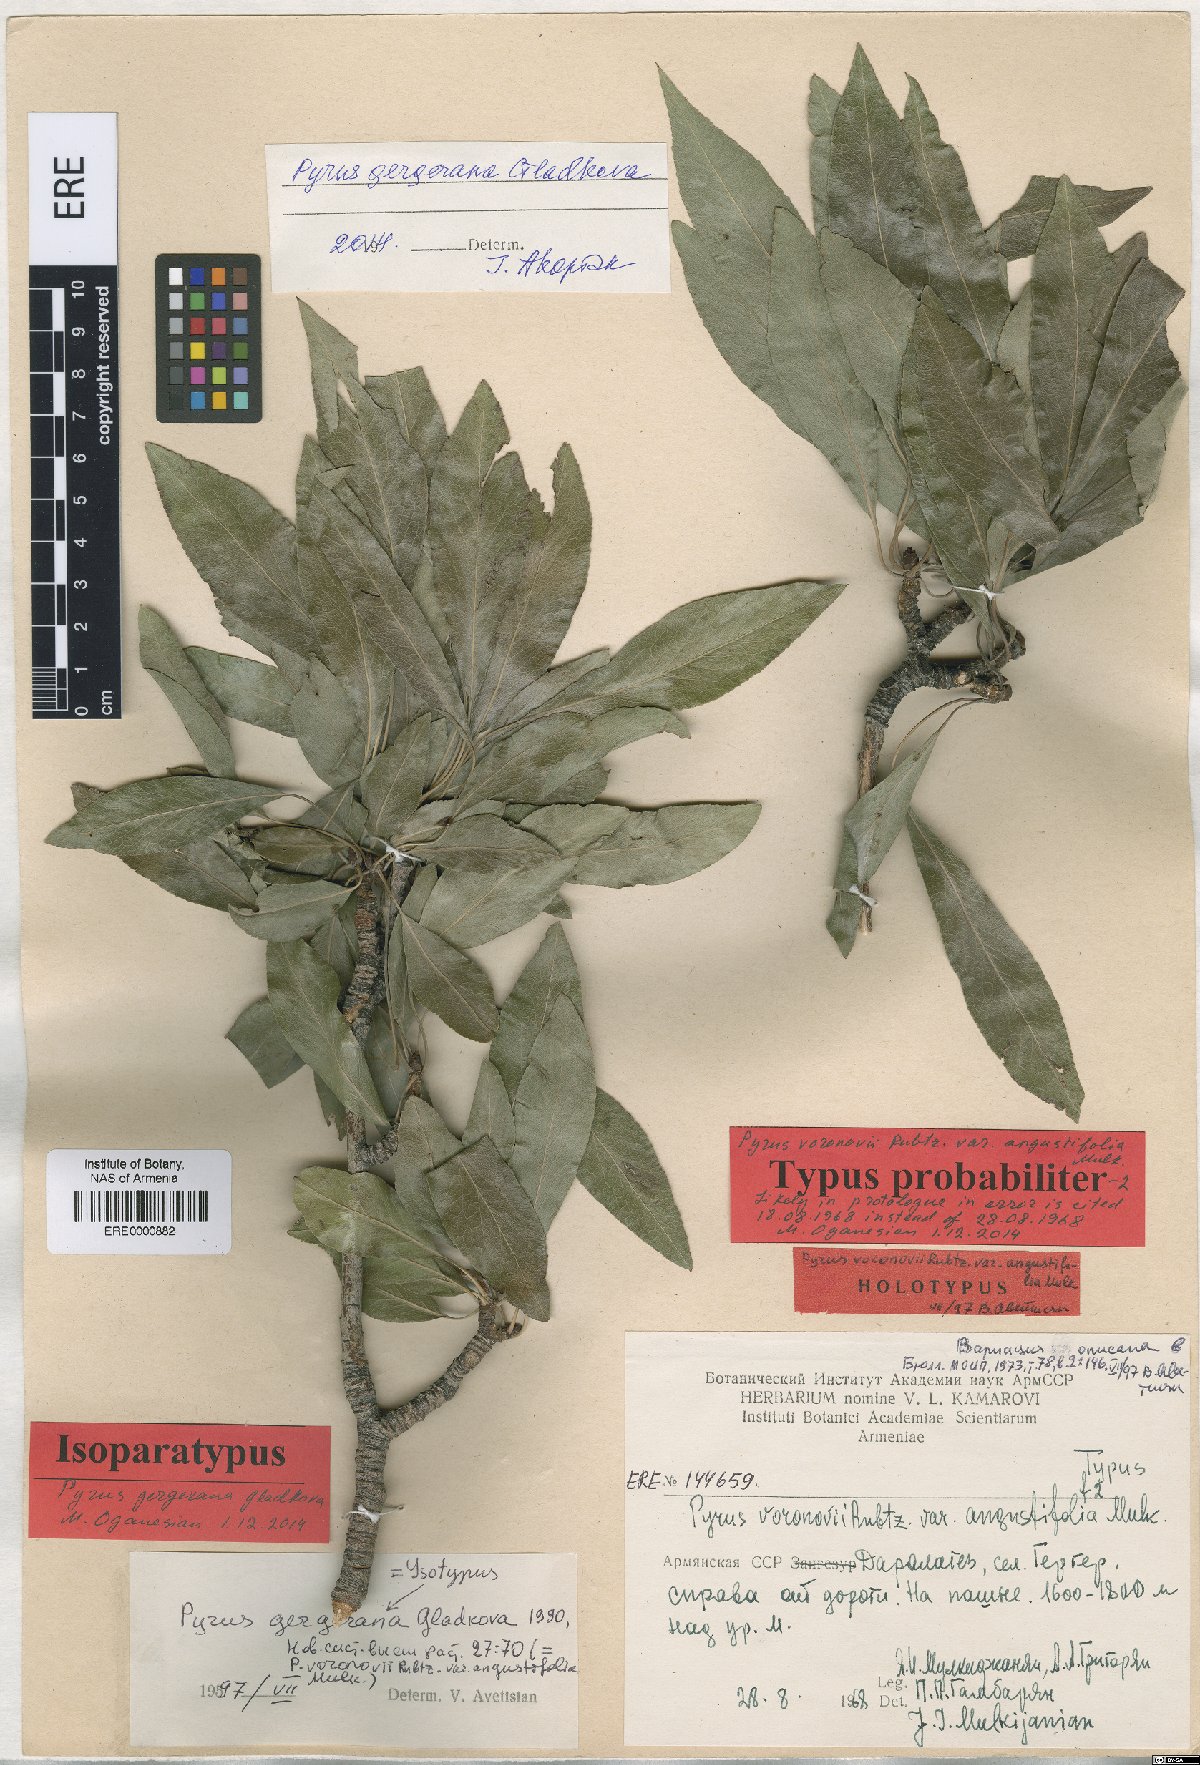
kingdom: Plantae
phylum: Tracheophyta
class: Magnoliopsida
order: Rosales
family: Rosaceae
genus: Pyrus
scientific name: Pyrus gergerana
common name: Gergeranian pear
